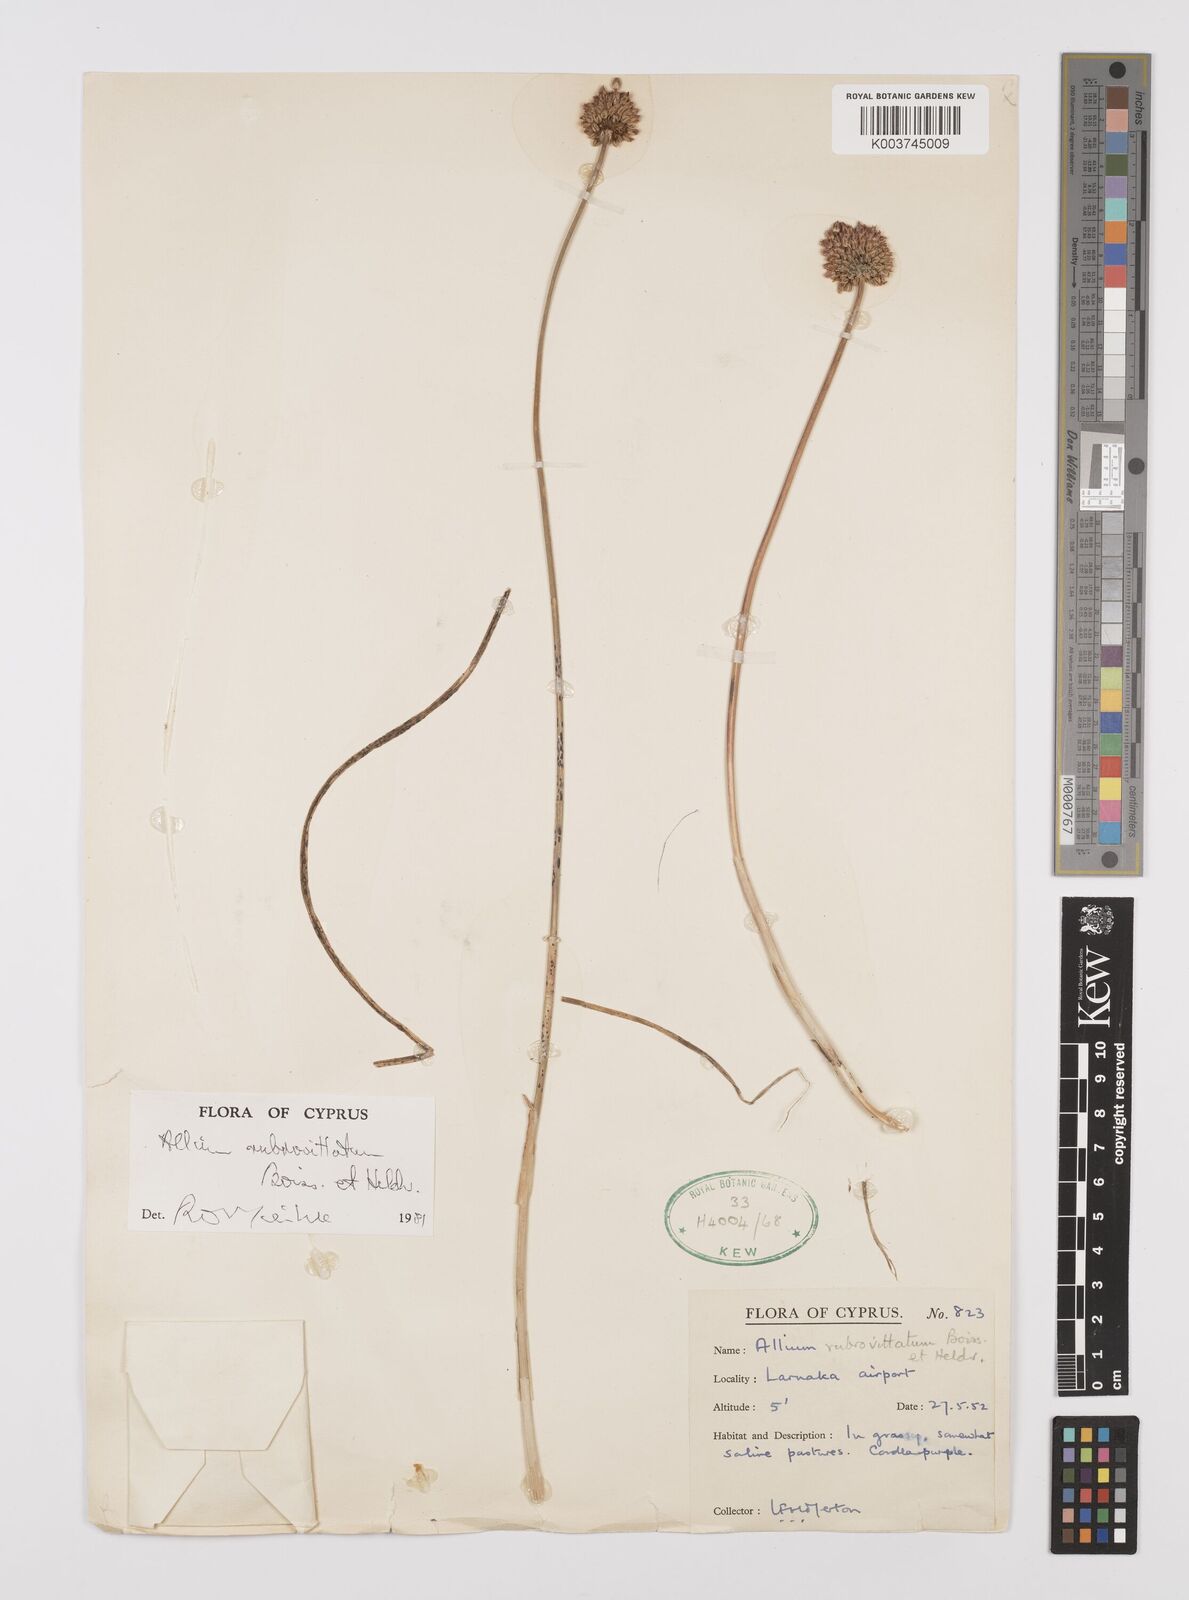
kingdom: Plantae
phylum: Tracheophyta
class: Liliopsida
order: Asparagales
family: Amaryllidaceae
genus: Allium
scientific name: Allium rubrovittatum
